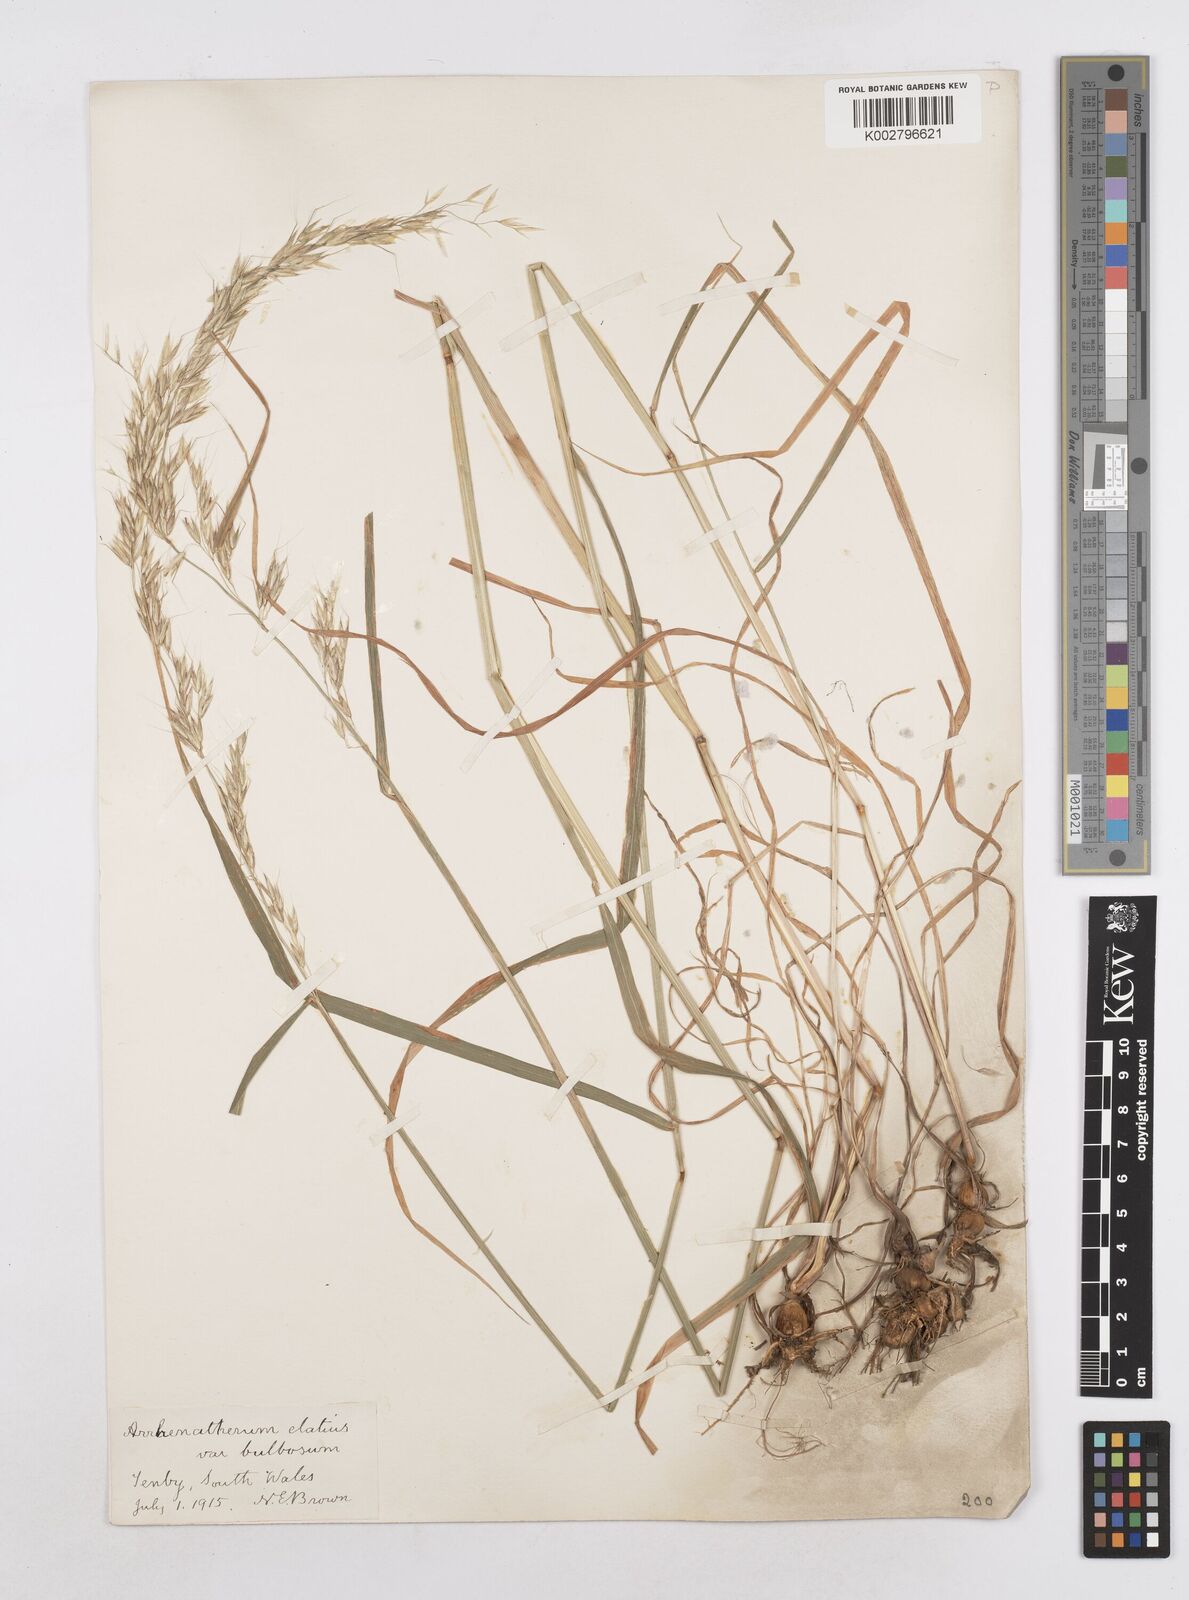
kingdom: Plantae
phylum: Tracheophyta
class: Liliopsida
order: Poales
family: Poaceae
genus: Arrhenatherum
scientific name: Arrhenatherum elatius
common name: Tall oatgrass
